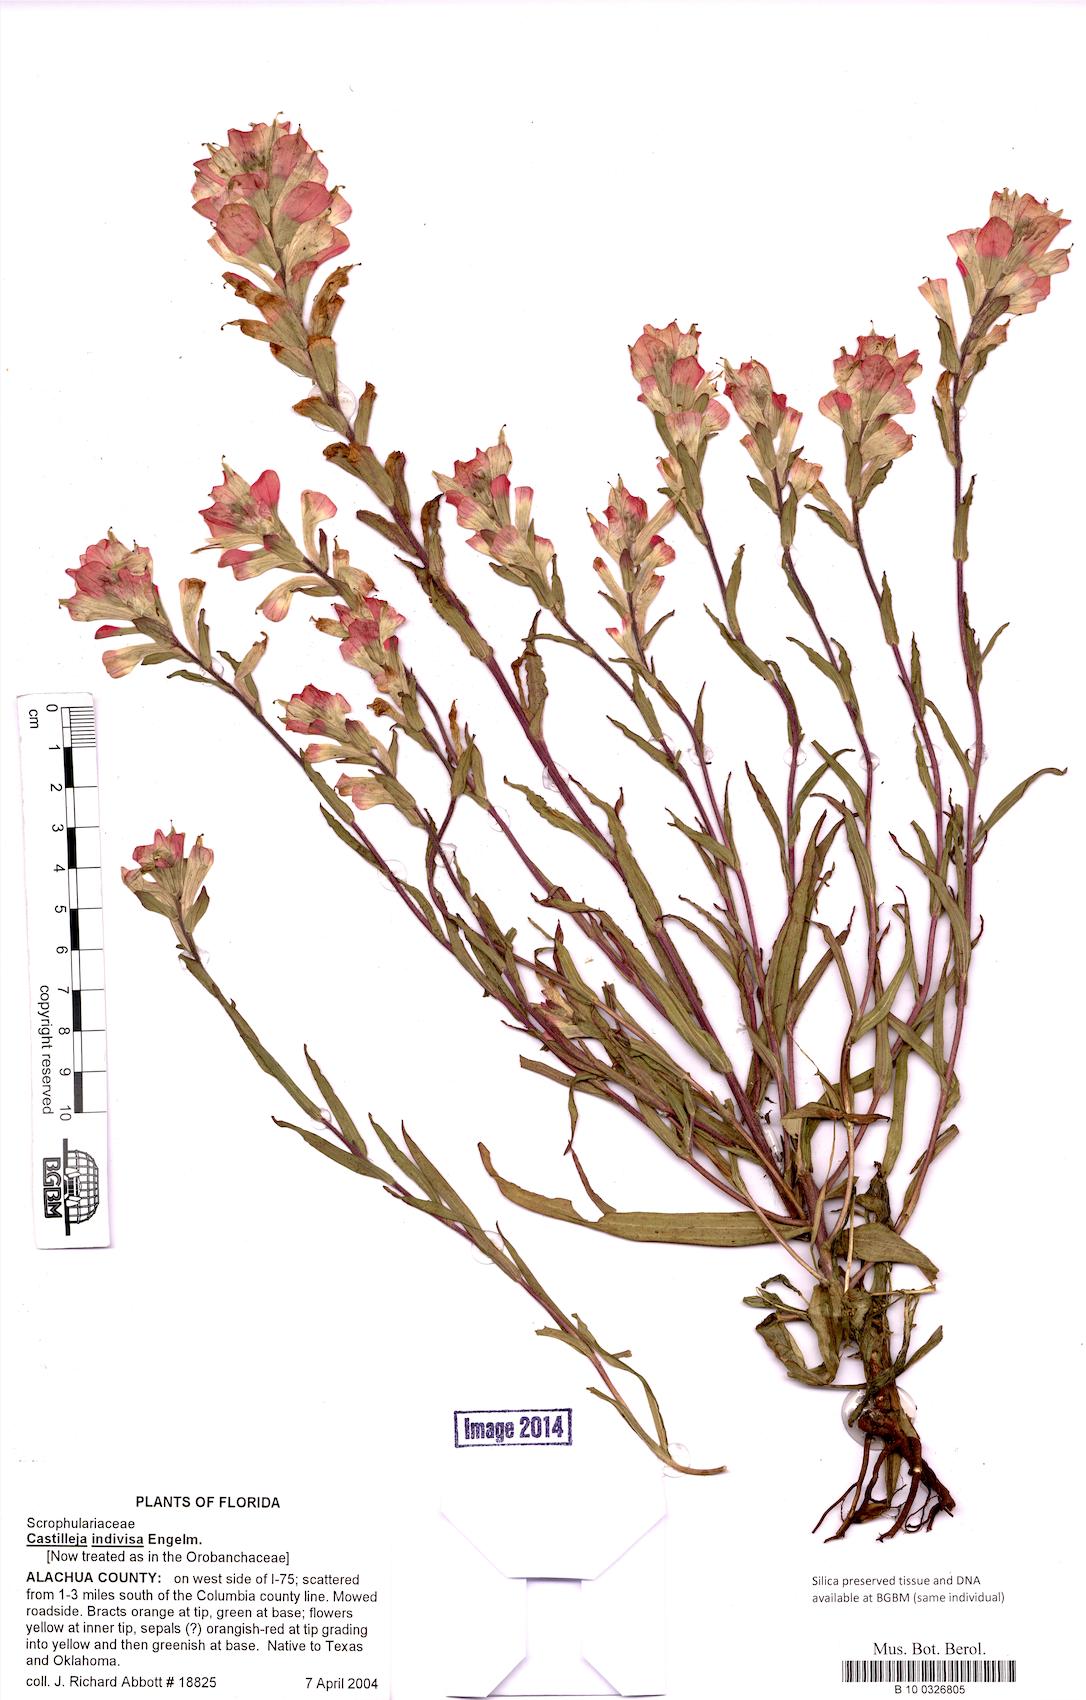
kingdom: Plantae
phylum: Tracheophyta
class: Magnoliopsida
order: Lamiales
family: Orobanchaceae
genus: Castilleja
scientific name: Castilleja indivisa
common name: Texas paintbrush
